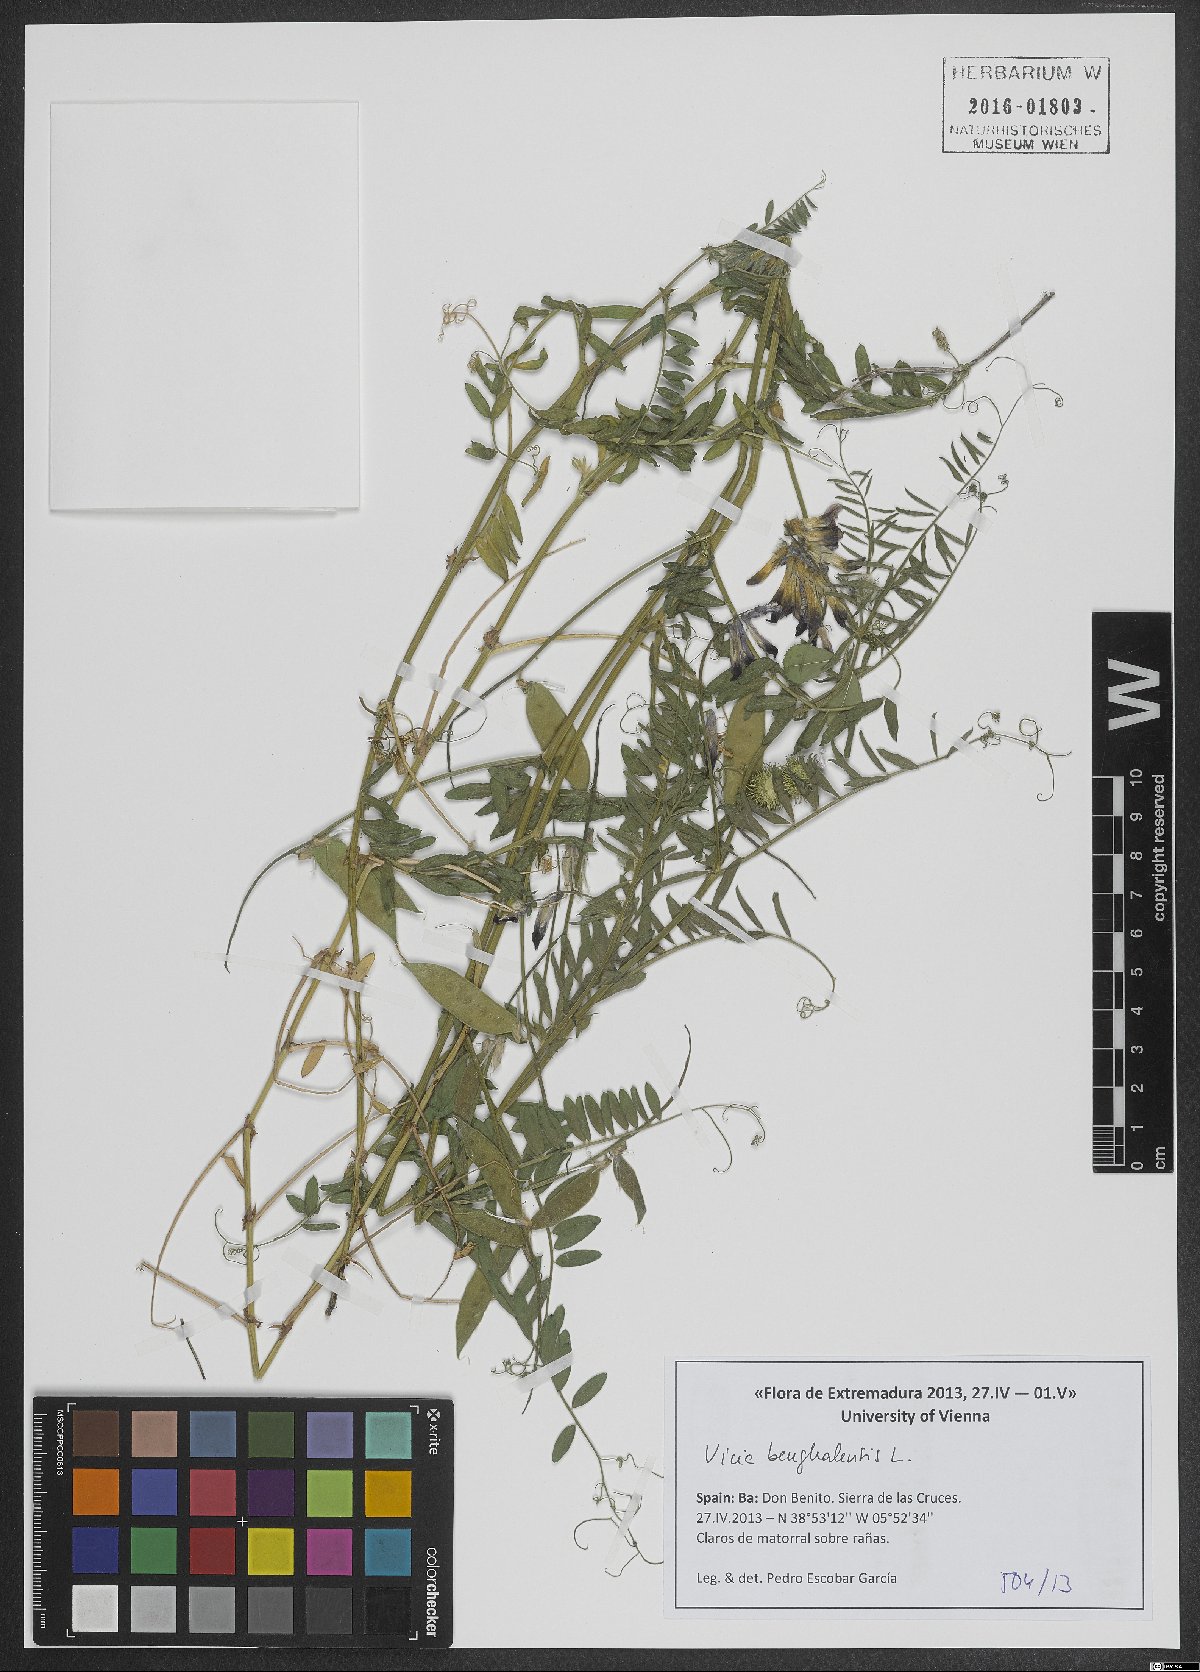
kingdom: Plantae
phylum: Tracheophyta
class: Magnoliopsida
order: Fabales
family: Fabaceae
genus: Vicia
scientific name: Vicia benghalensis
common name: Purple vetch
